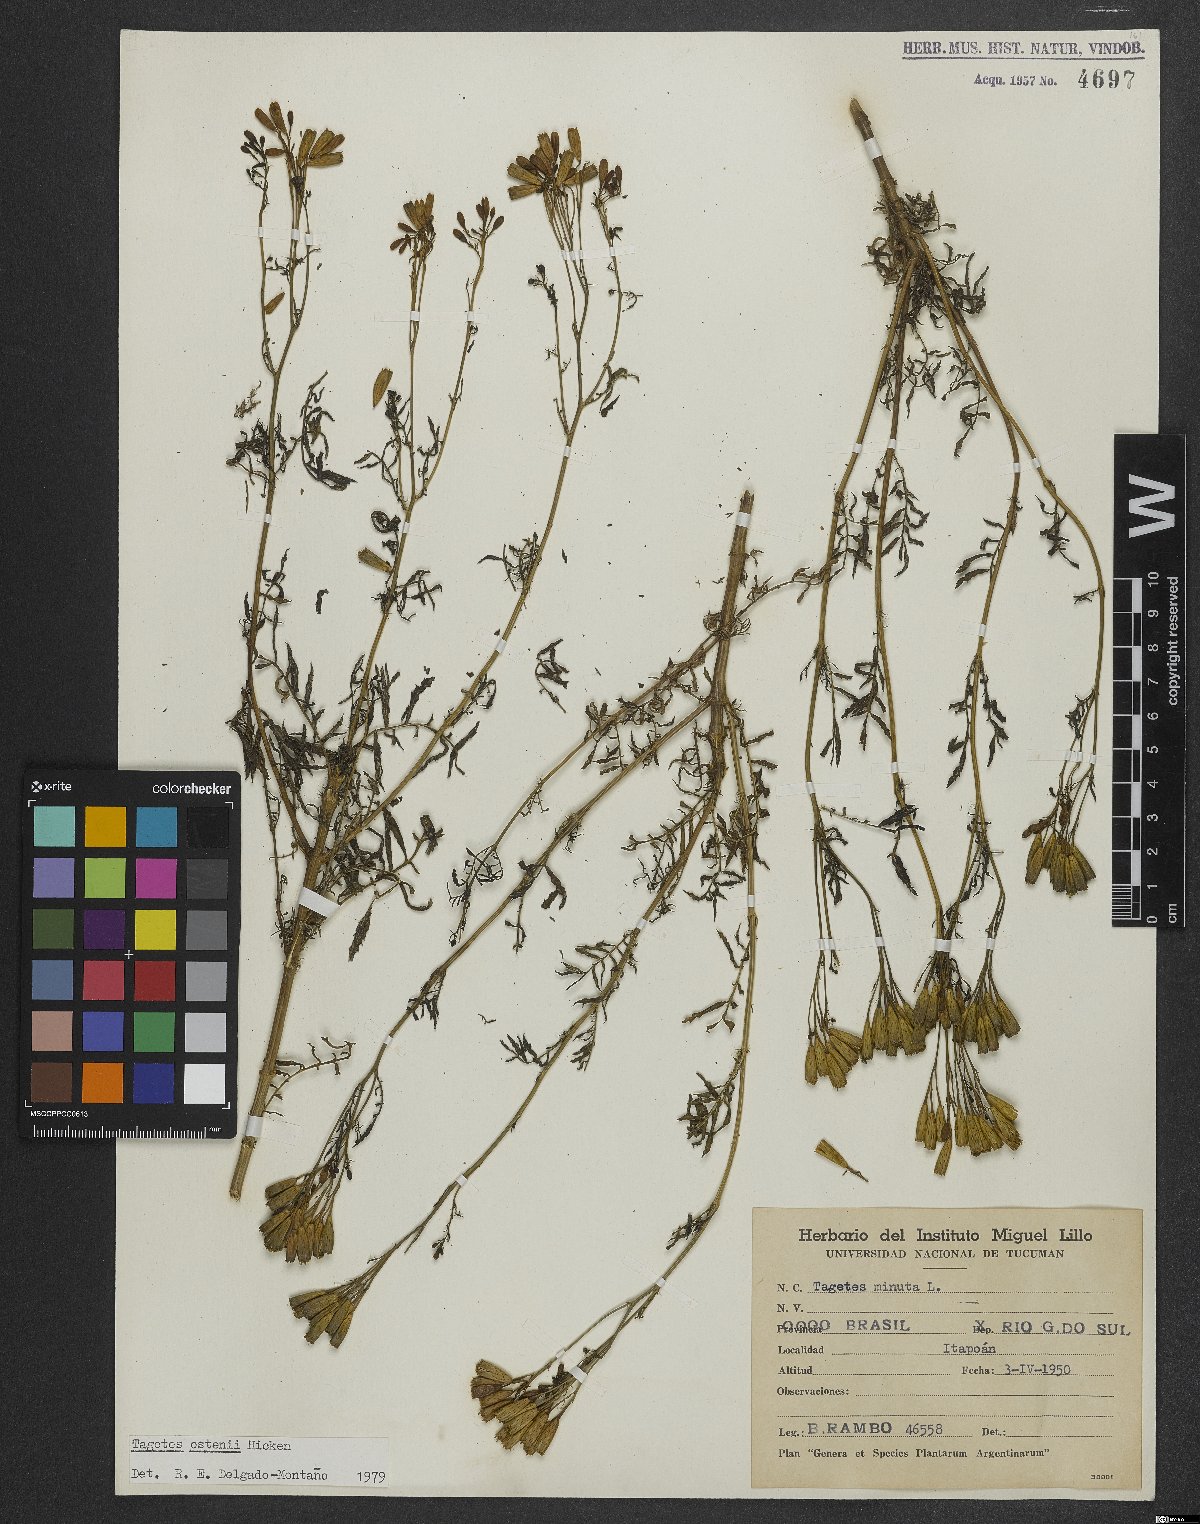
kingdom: Plantae
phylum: Tracheophyta
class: Magnoliopsida
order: Asterales
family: Asteraceae
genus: Tagetes
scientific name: Tagetes ostenii
